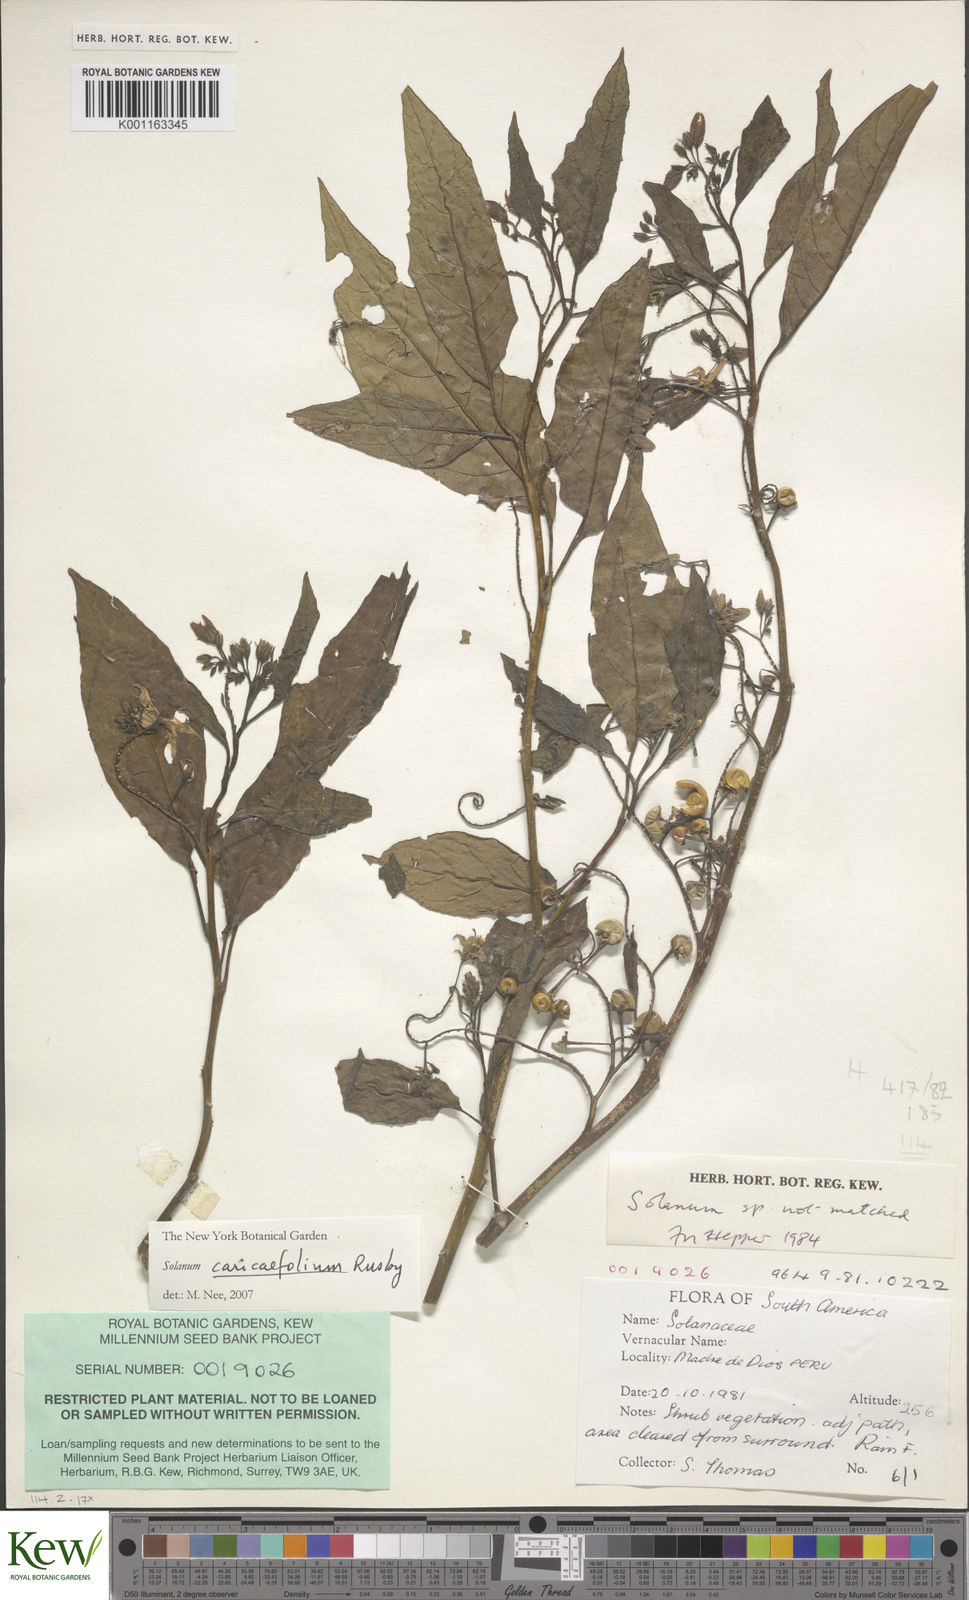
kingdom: Plantae
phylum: Tracheophyta
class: Magnoliopsida
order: Solanales
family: Solanaceae
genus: Solanum
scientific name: Solanum caricaefolium
